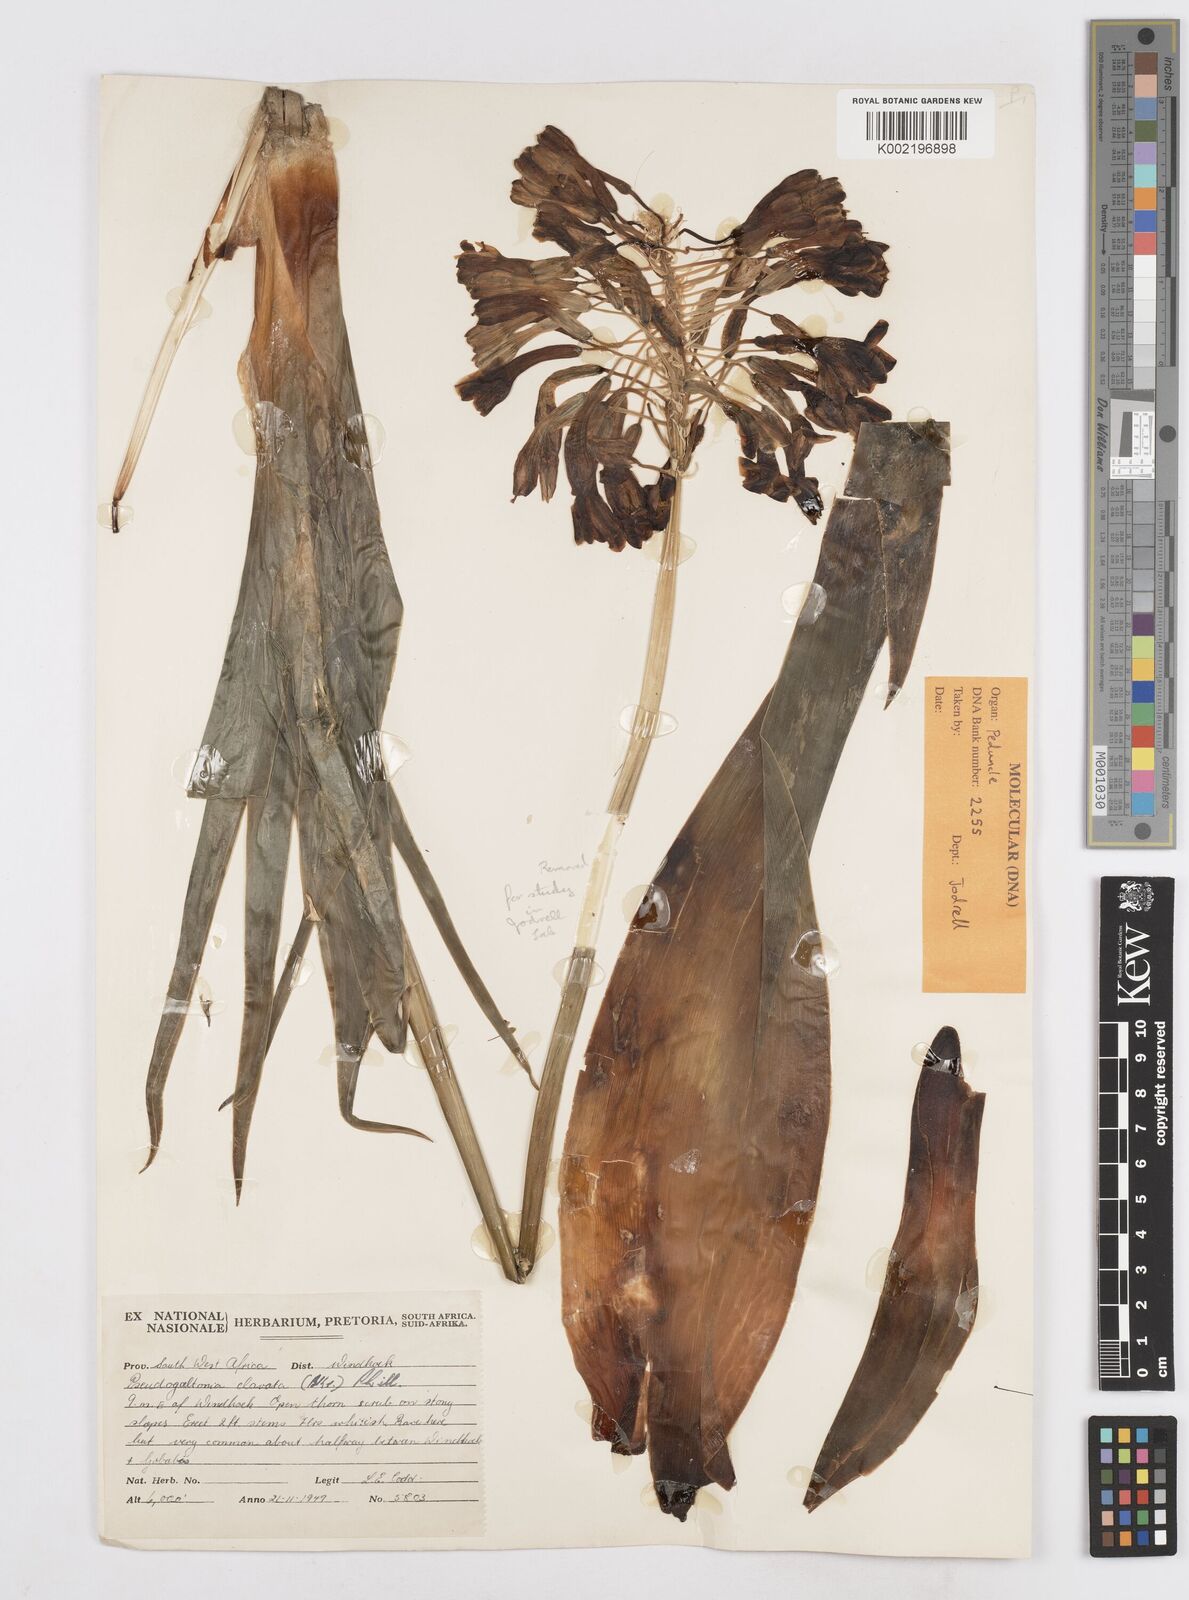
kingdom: Plantae
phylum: Tracheophyta
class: Liliopsida
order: Asparagales
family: Asparagaceae
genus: Pseudogaltonia
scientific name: Pseudogaltonia clavata
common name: South west african slangkop
